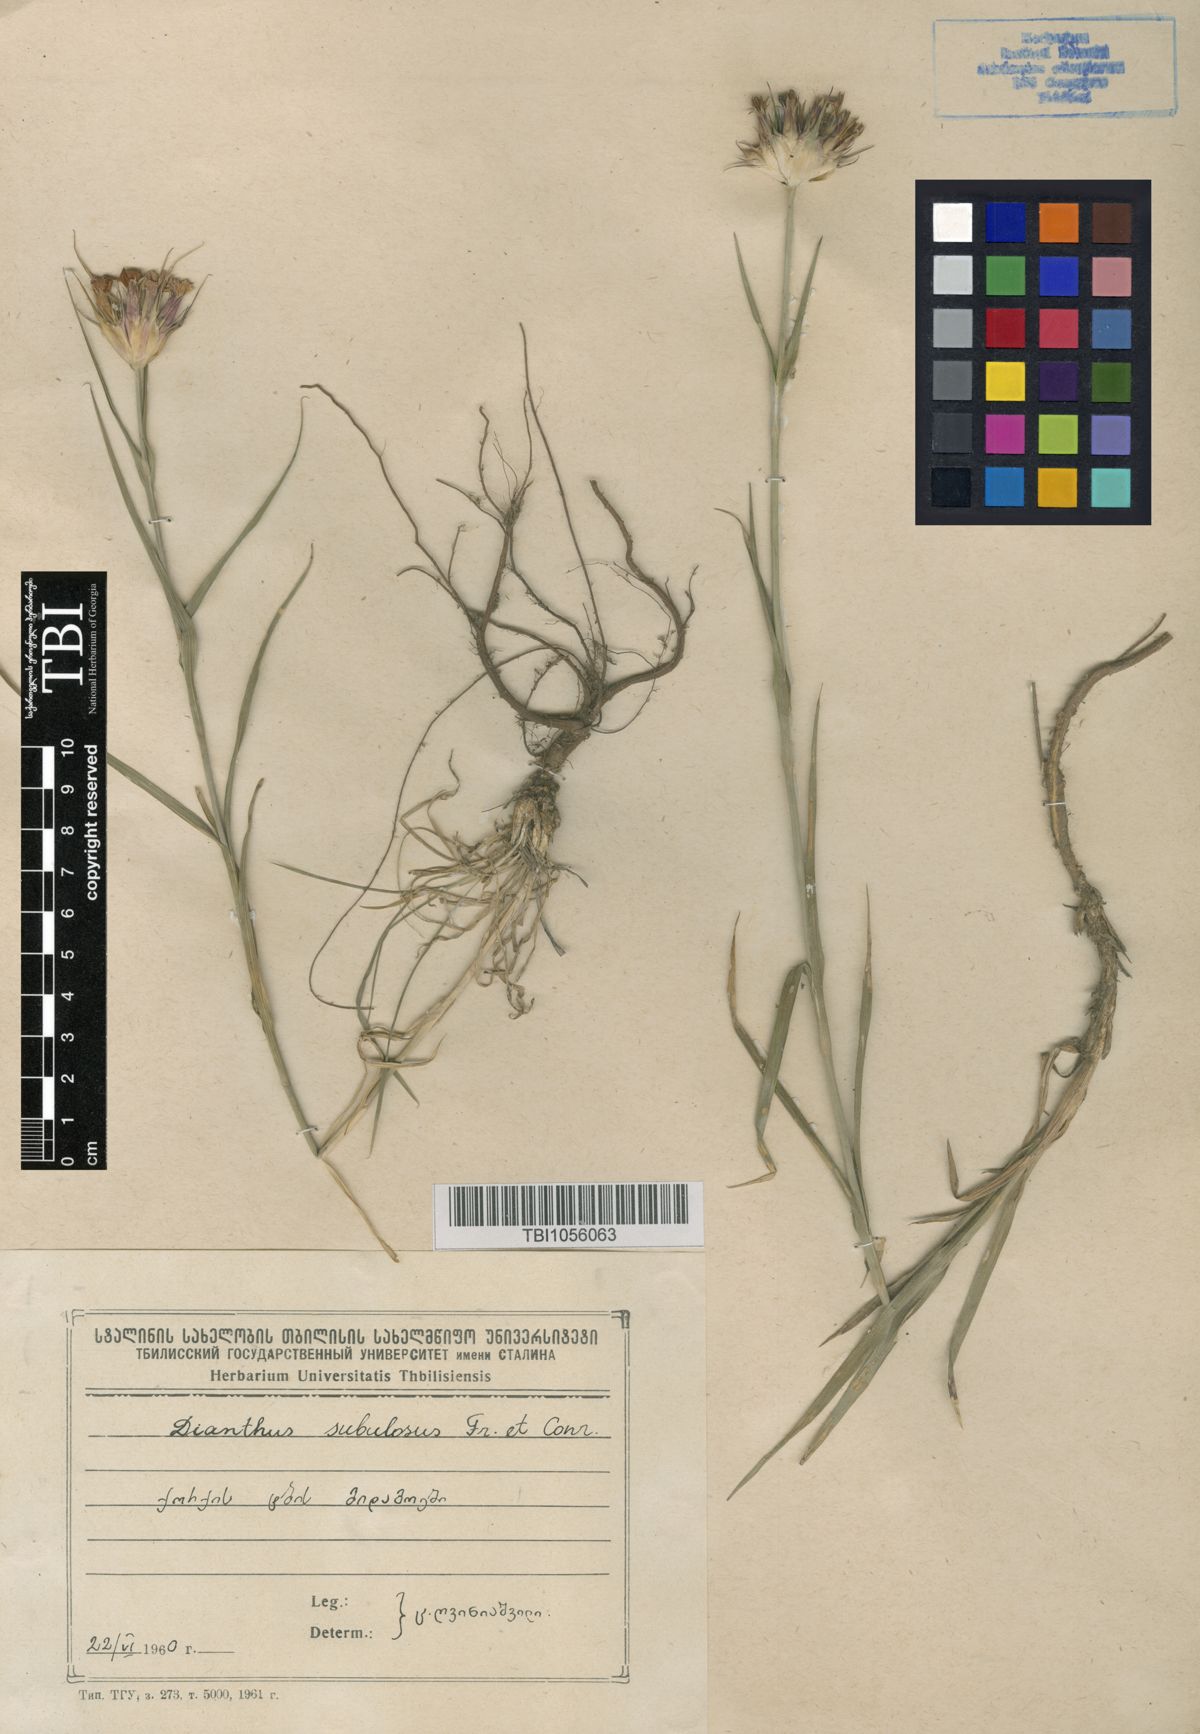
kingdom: Plantae
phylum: Tracheophyta
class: Magnoliopsida
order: Caryophyllales
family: Caryophyllaceae
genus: Dianthus
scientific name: Dianthus subulosus
